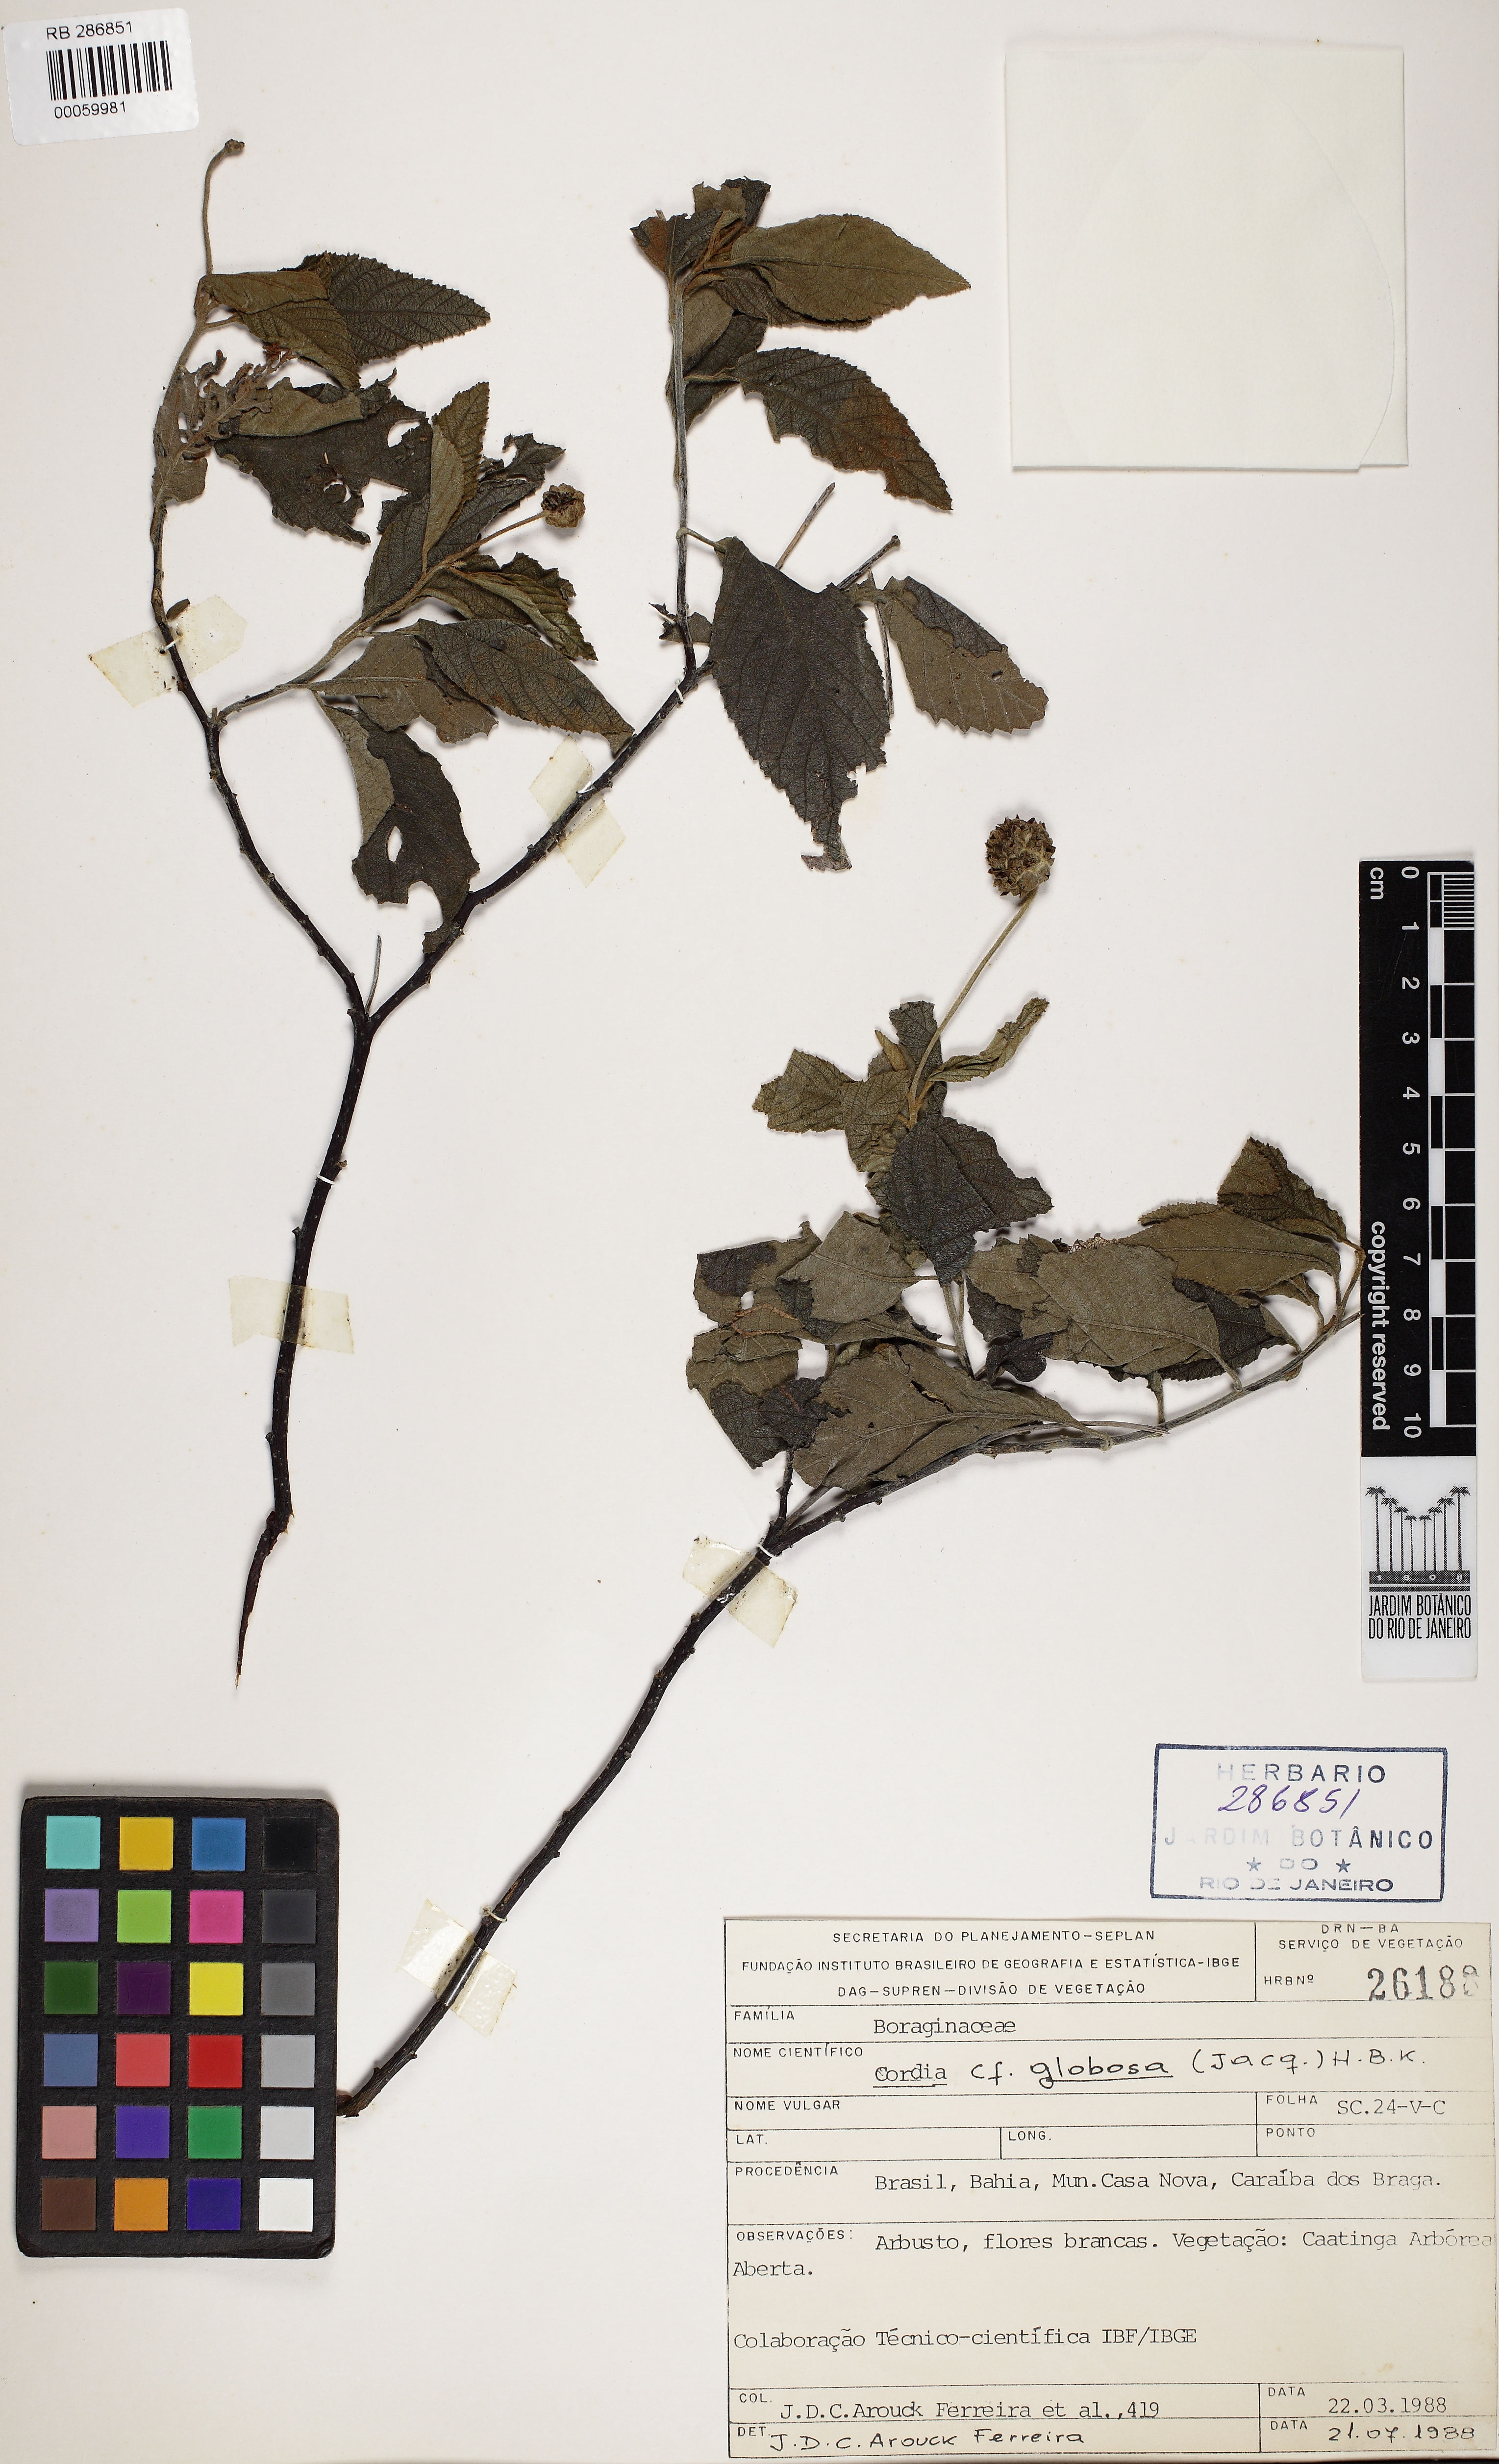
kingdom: Plantae
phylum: Tracheophyta
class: Magnoliopsida
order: Boraginales
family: Cordiaceae
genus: Varronia
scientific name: Varronia bullata
